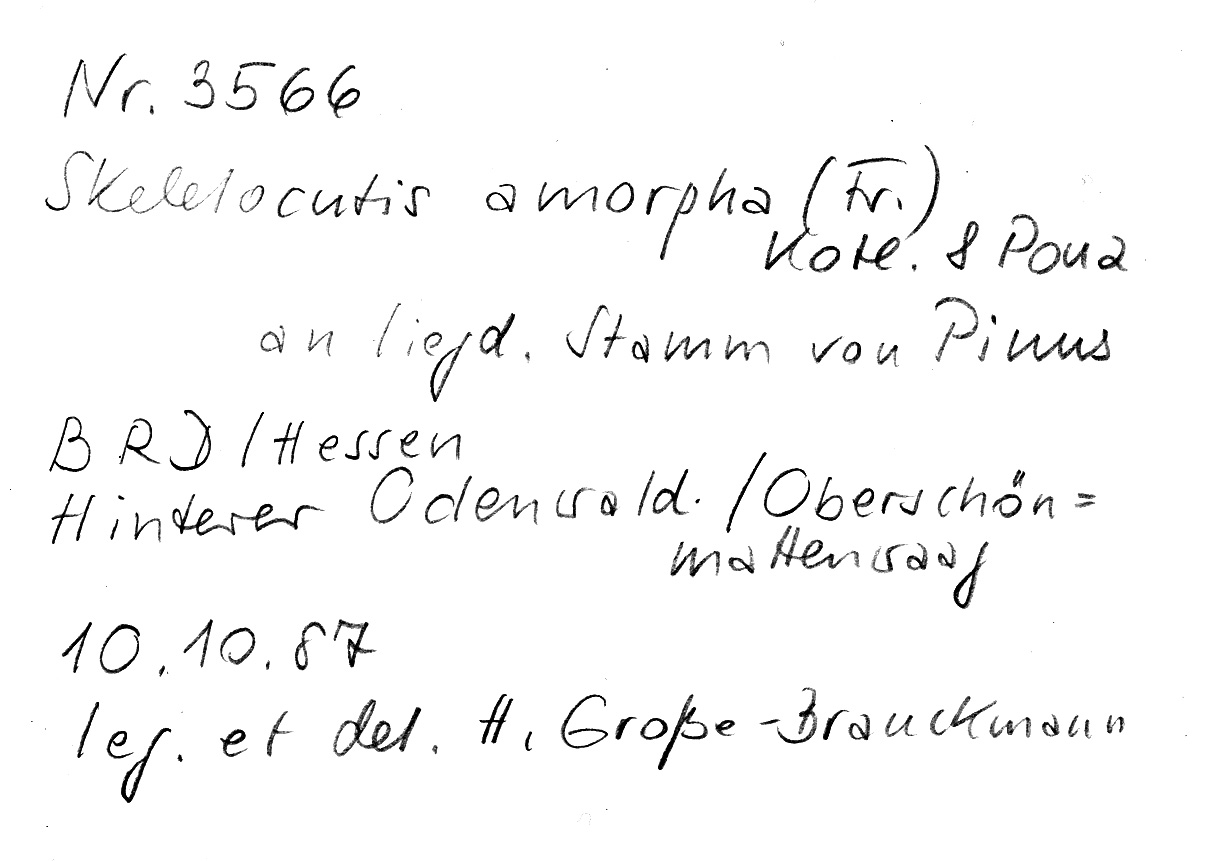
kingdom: Fungi
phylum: Basidiomycota
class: Agaricomycetes
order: Polyporales
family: Incrustoporiaceae
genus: Skeletocutis
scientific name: Skeletocutis amorpha
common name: Rusty crust
